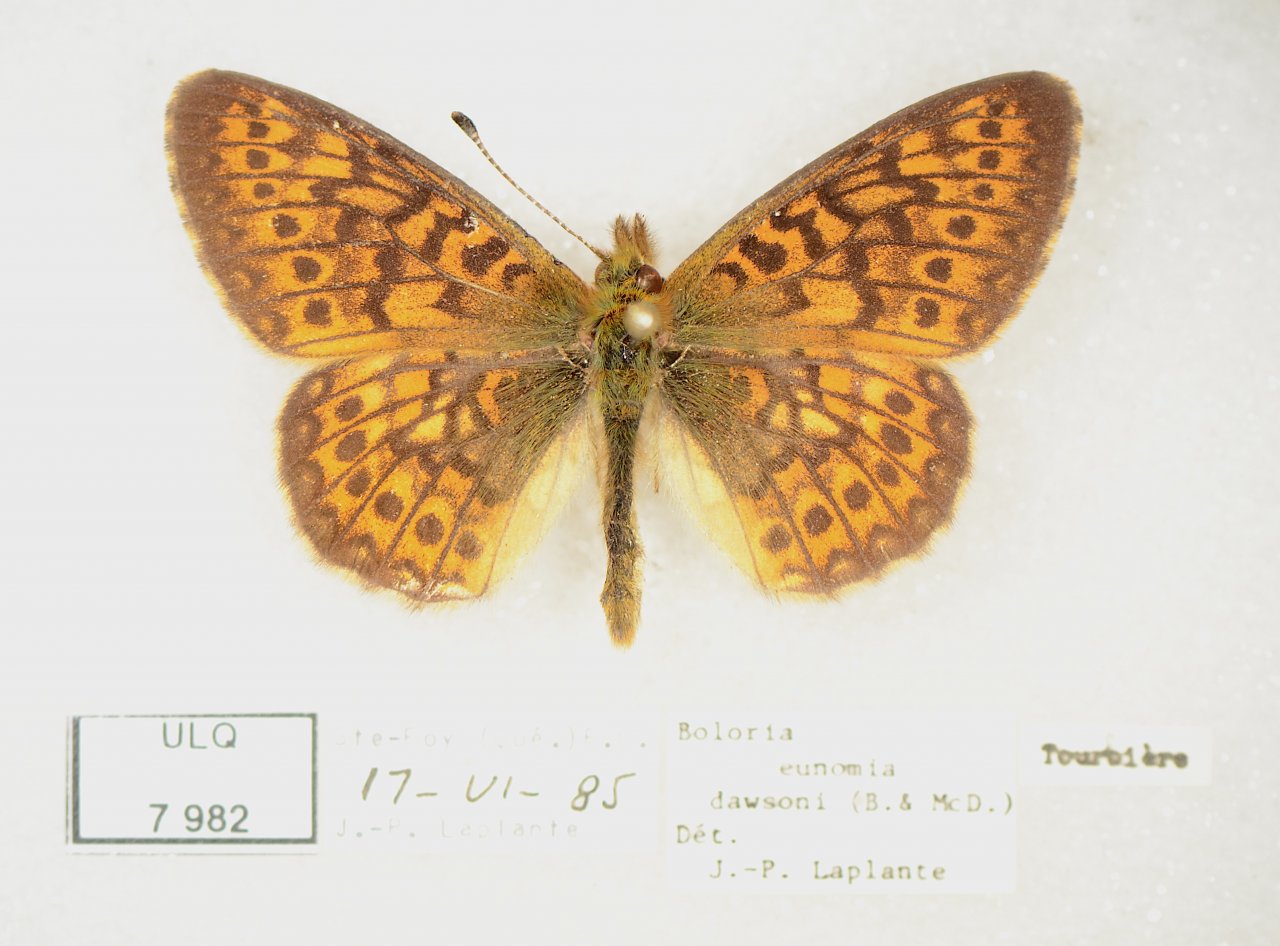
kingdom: Animalia
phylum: Arthropoda
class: Insecta
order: Lepidoptera
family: Nymphalidae
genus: Boloria
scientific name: Boloria eunomia
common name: Bog Fritillary
